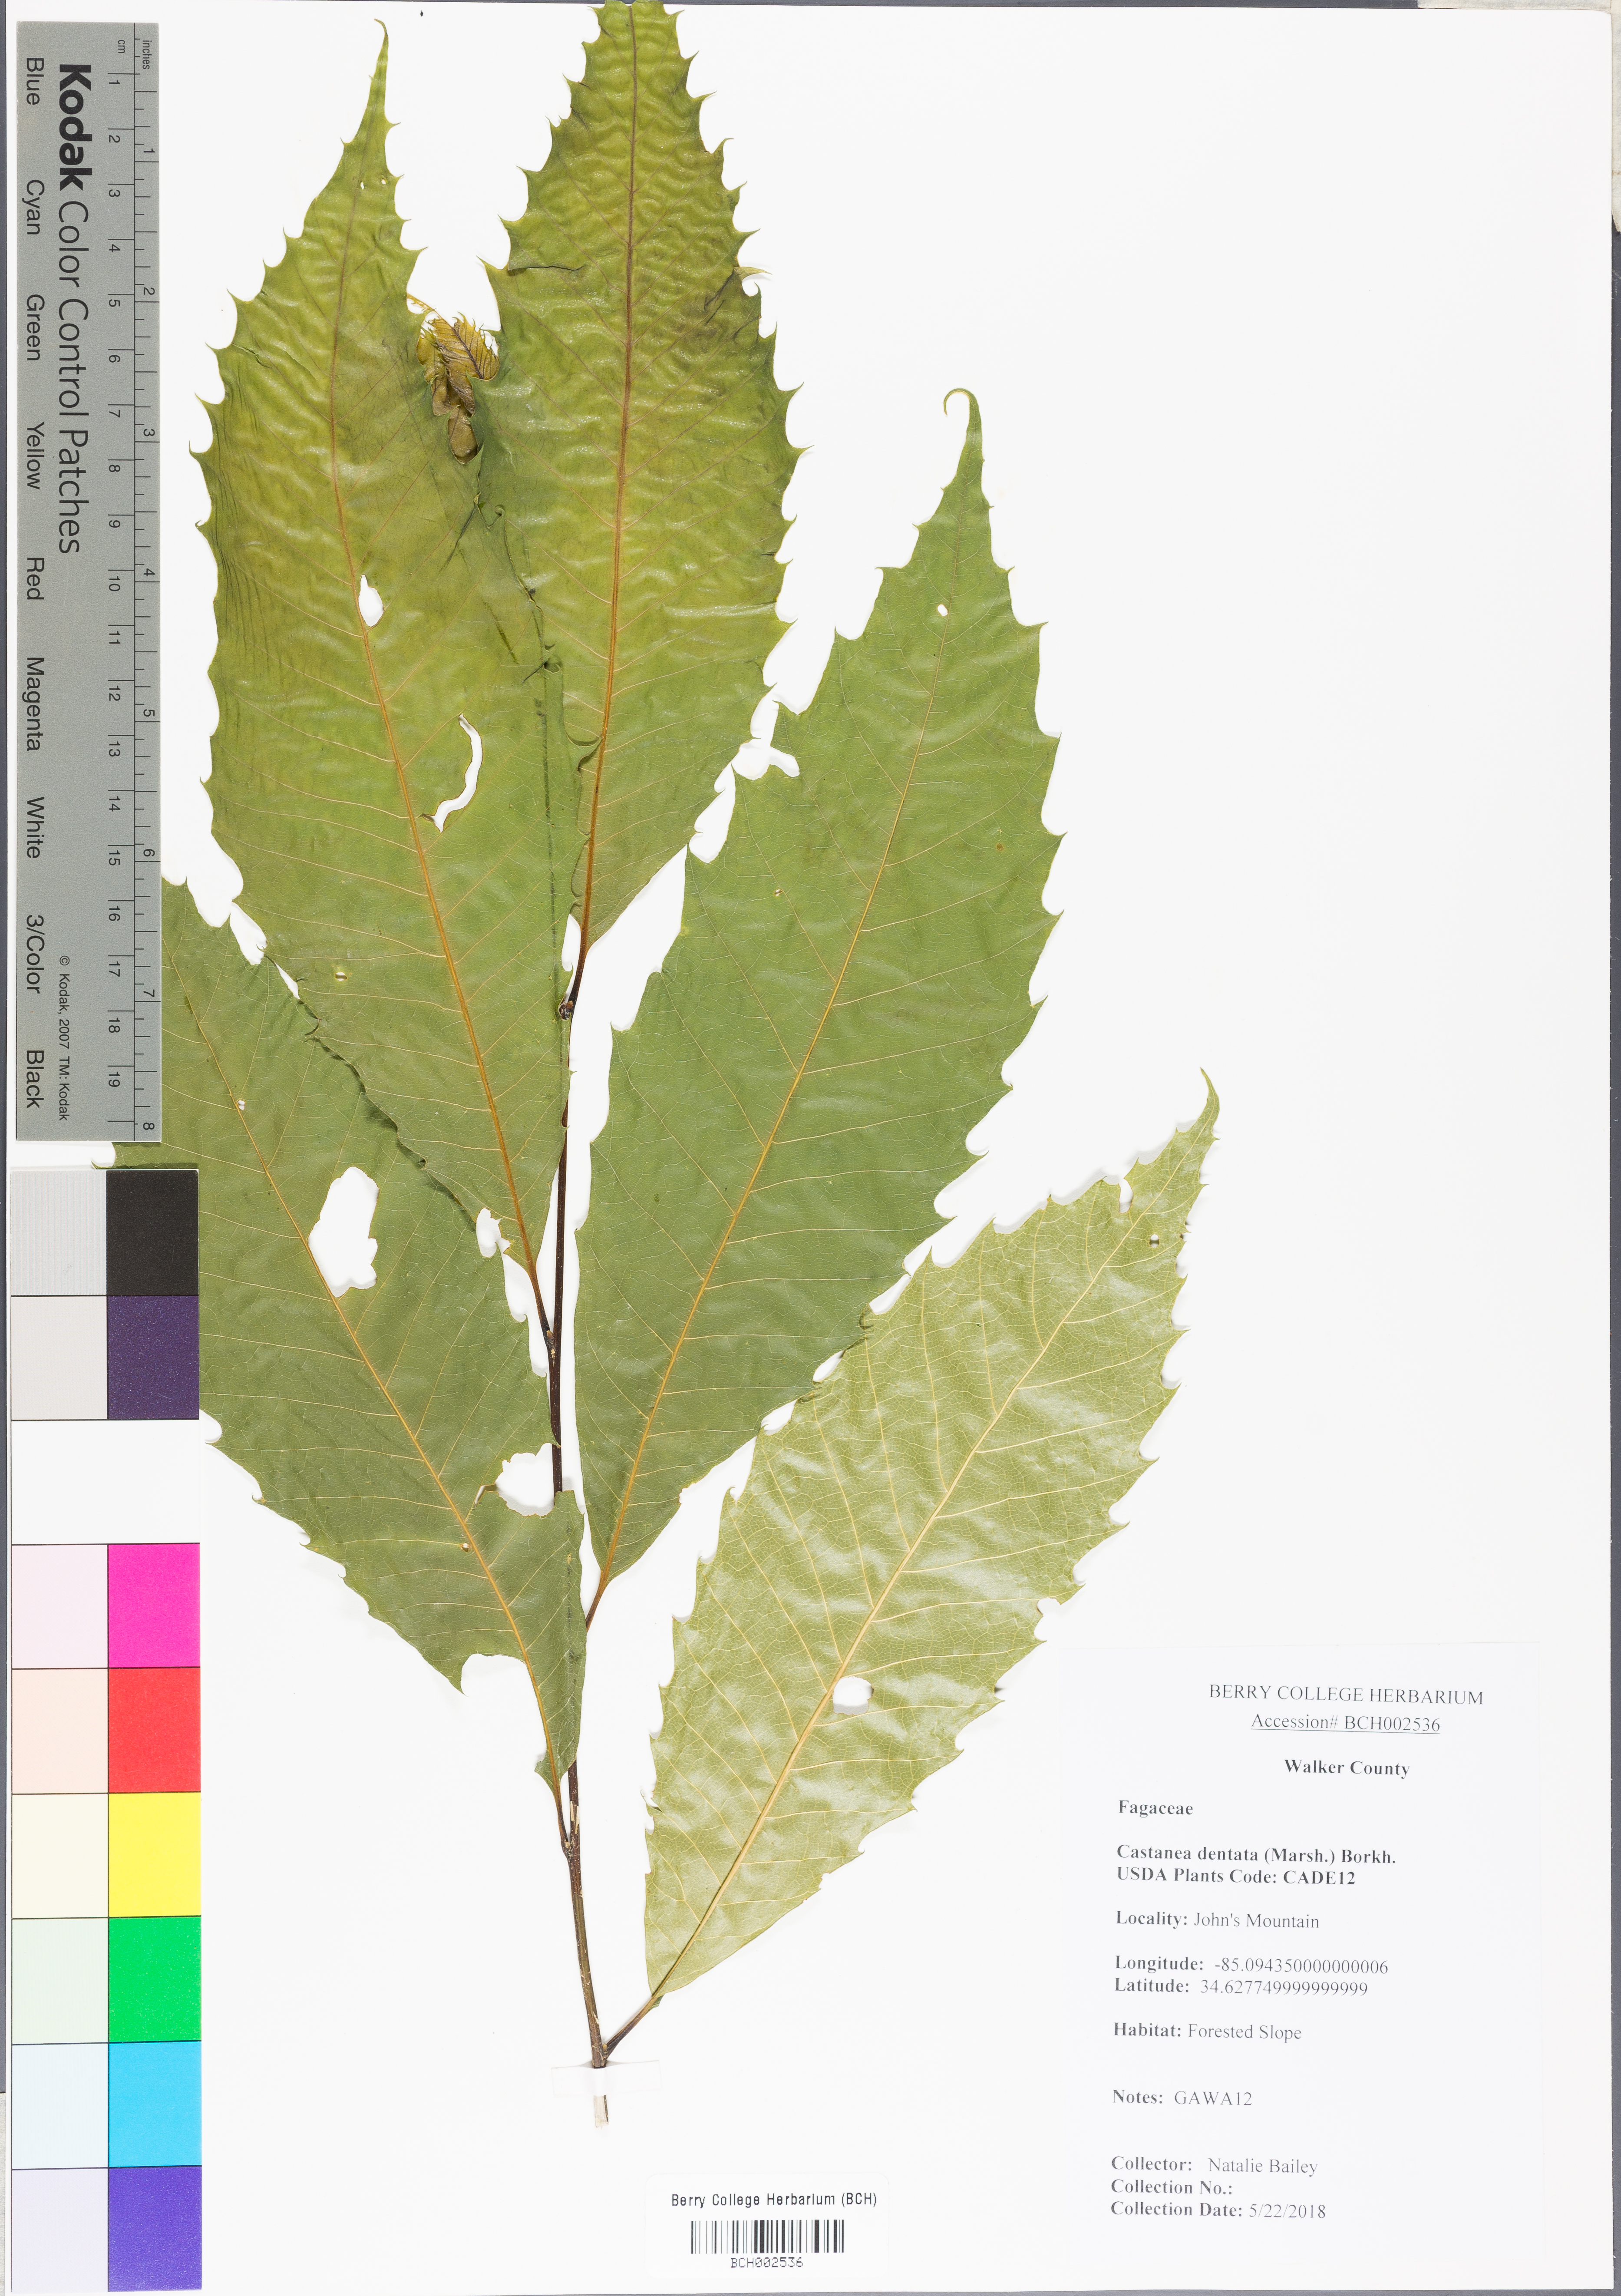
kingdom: Plantae
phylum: Tracheophyta
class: Magnoliopsida
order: Fagales
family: Fagaceae
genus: Castanea
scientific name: Castanea dentata
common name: American chestnut
